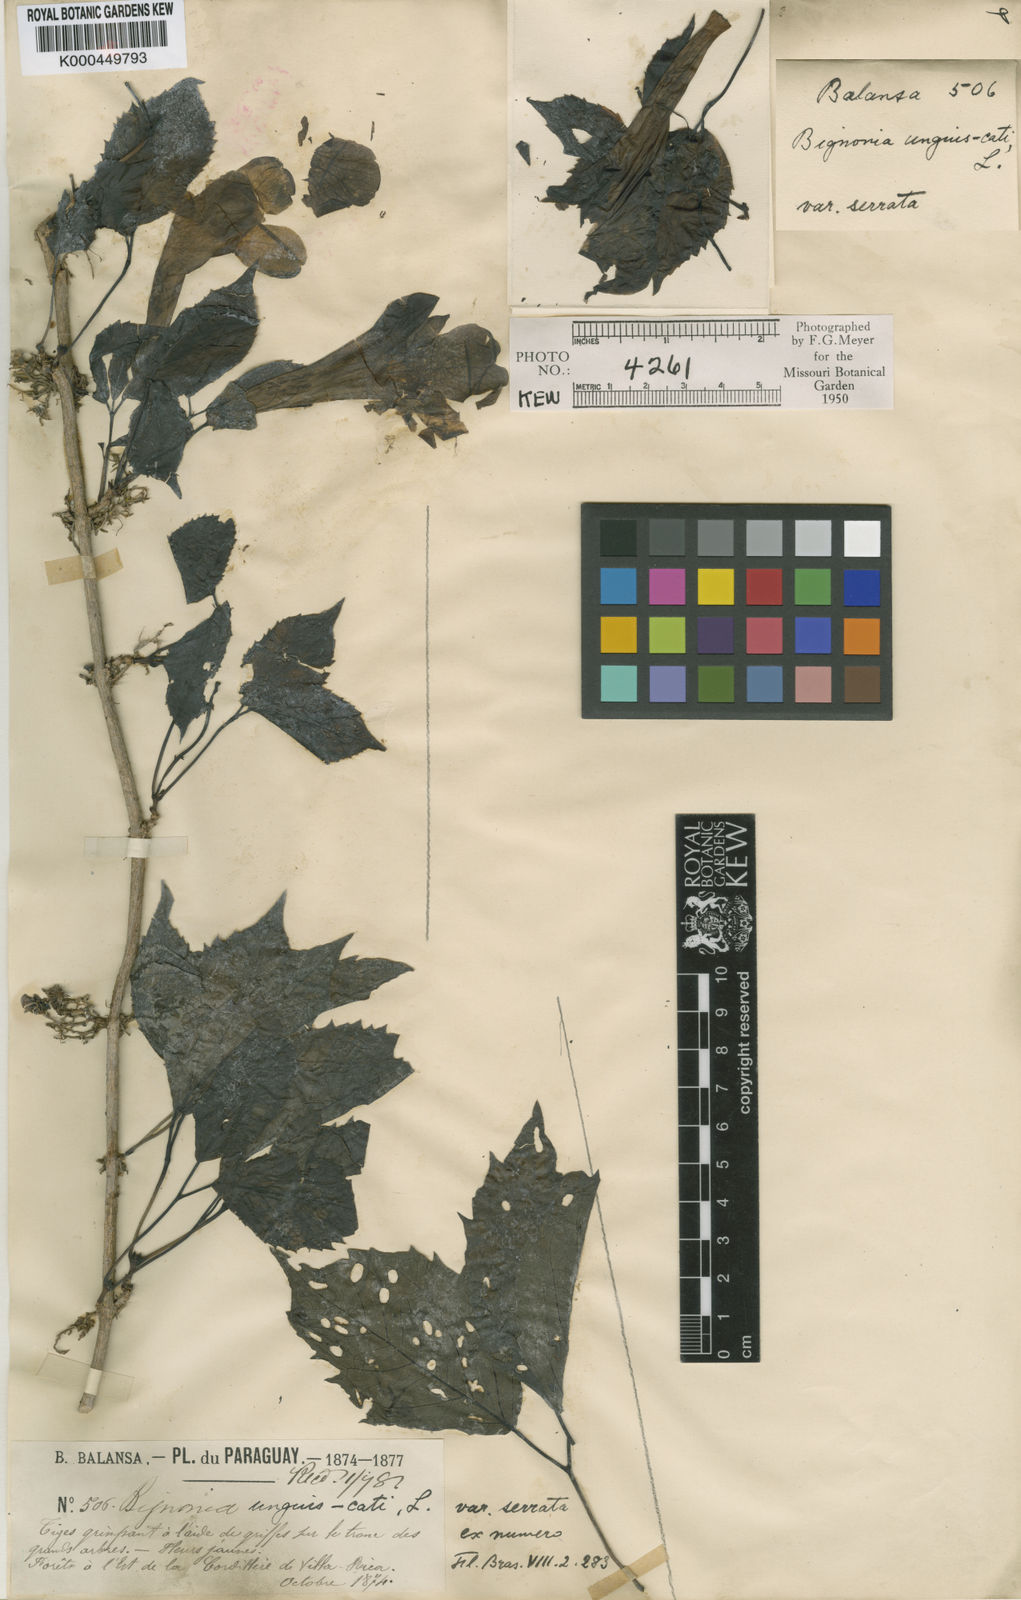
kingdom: Plantae
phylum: Tracheophyta
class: Magnoliopsida
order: Lamiales
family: Bignoniaceae
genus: Dolichandra
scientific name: Dolichandra unguis-cati
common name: Catclaw vine
